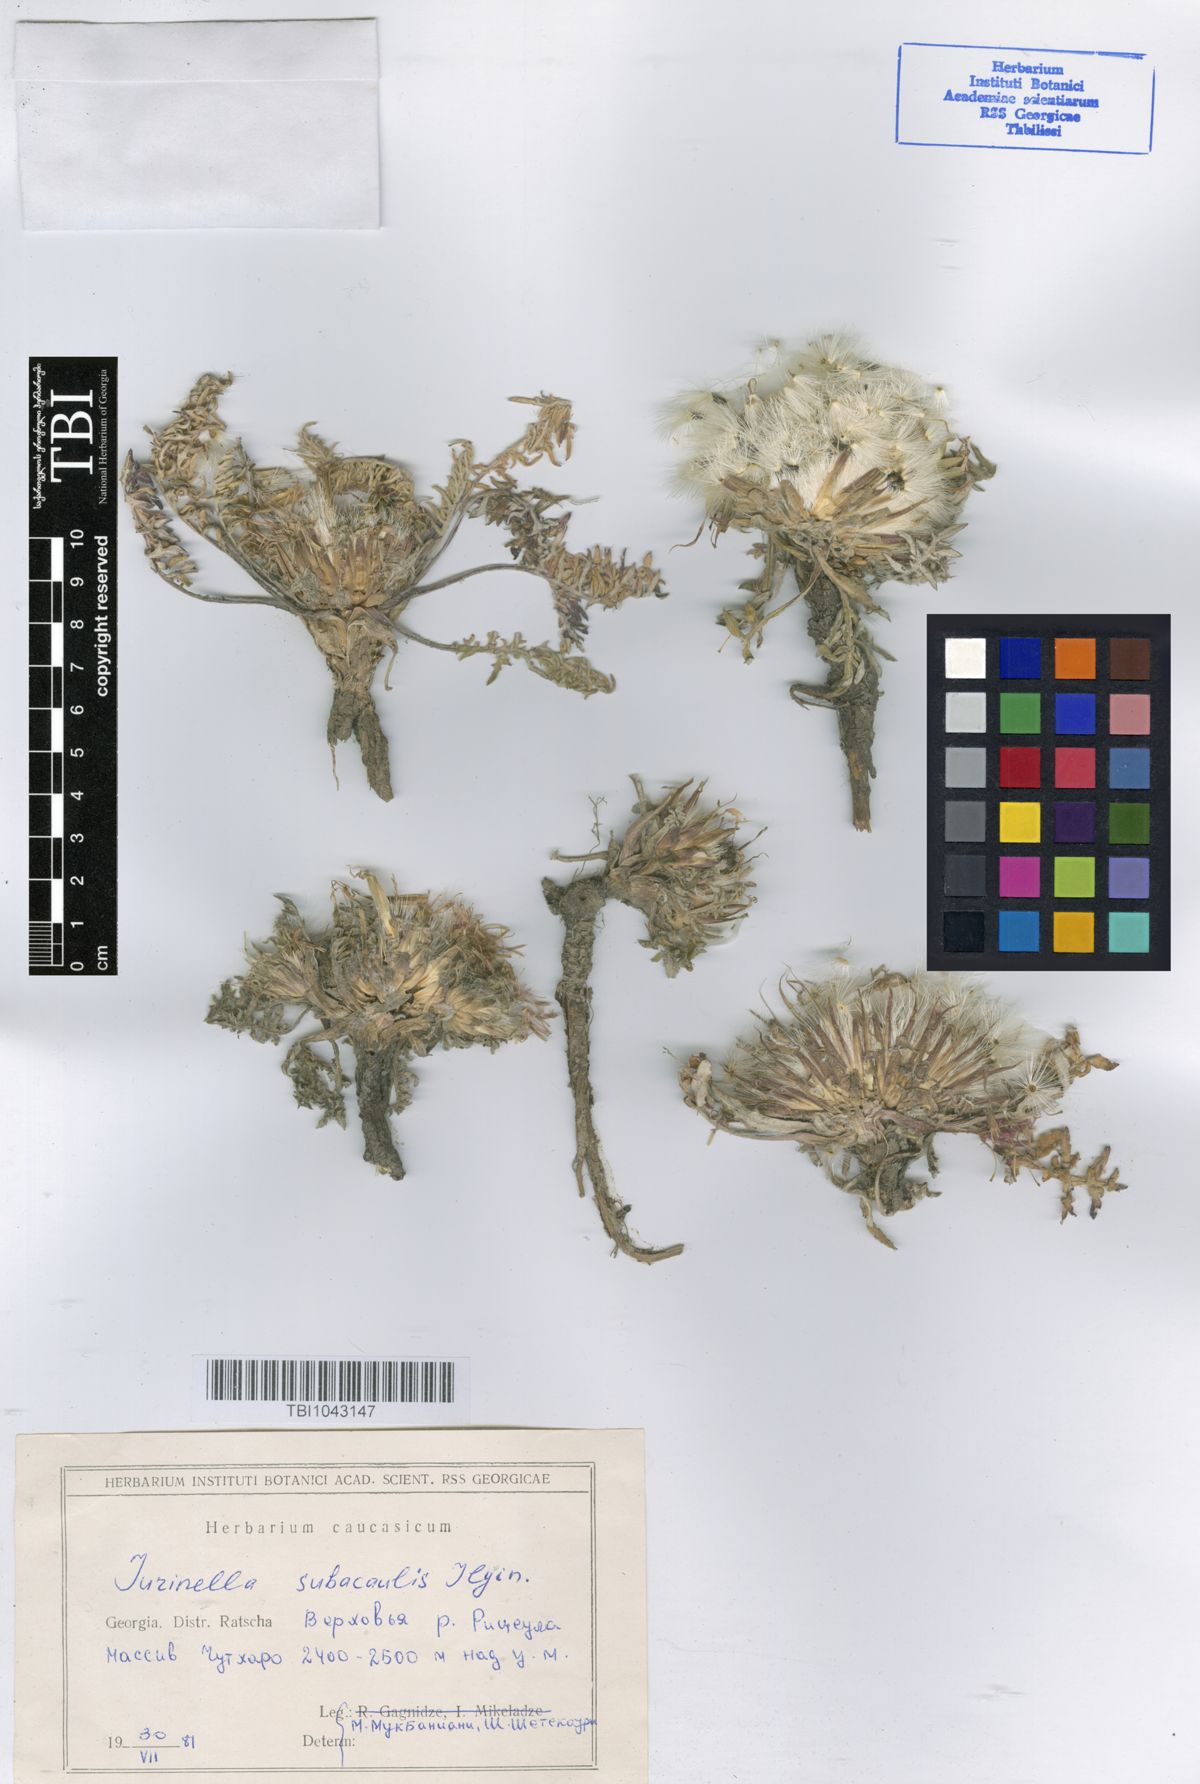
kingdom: Plantae
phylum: Tracheophyta
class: Magnoliopsida
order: Asterales
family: Asteraceae
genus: Jurinea
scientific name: Jurinea moschus
